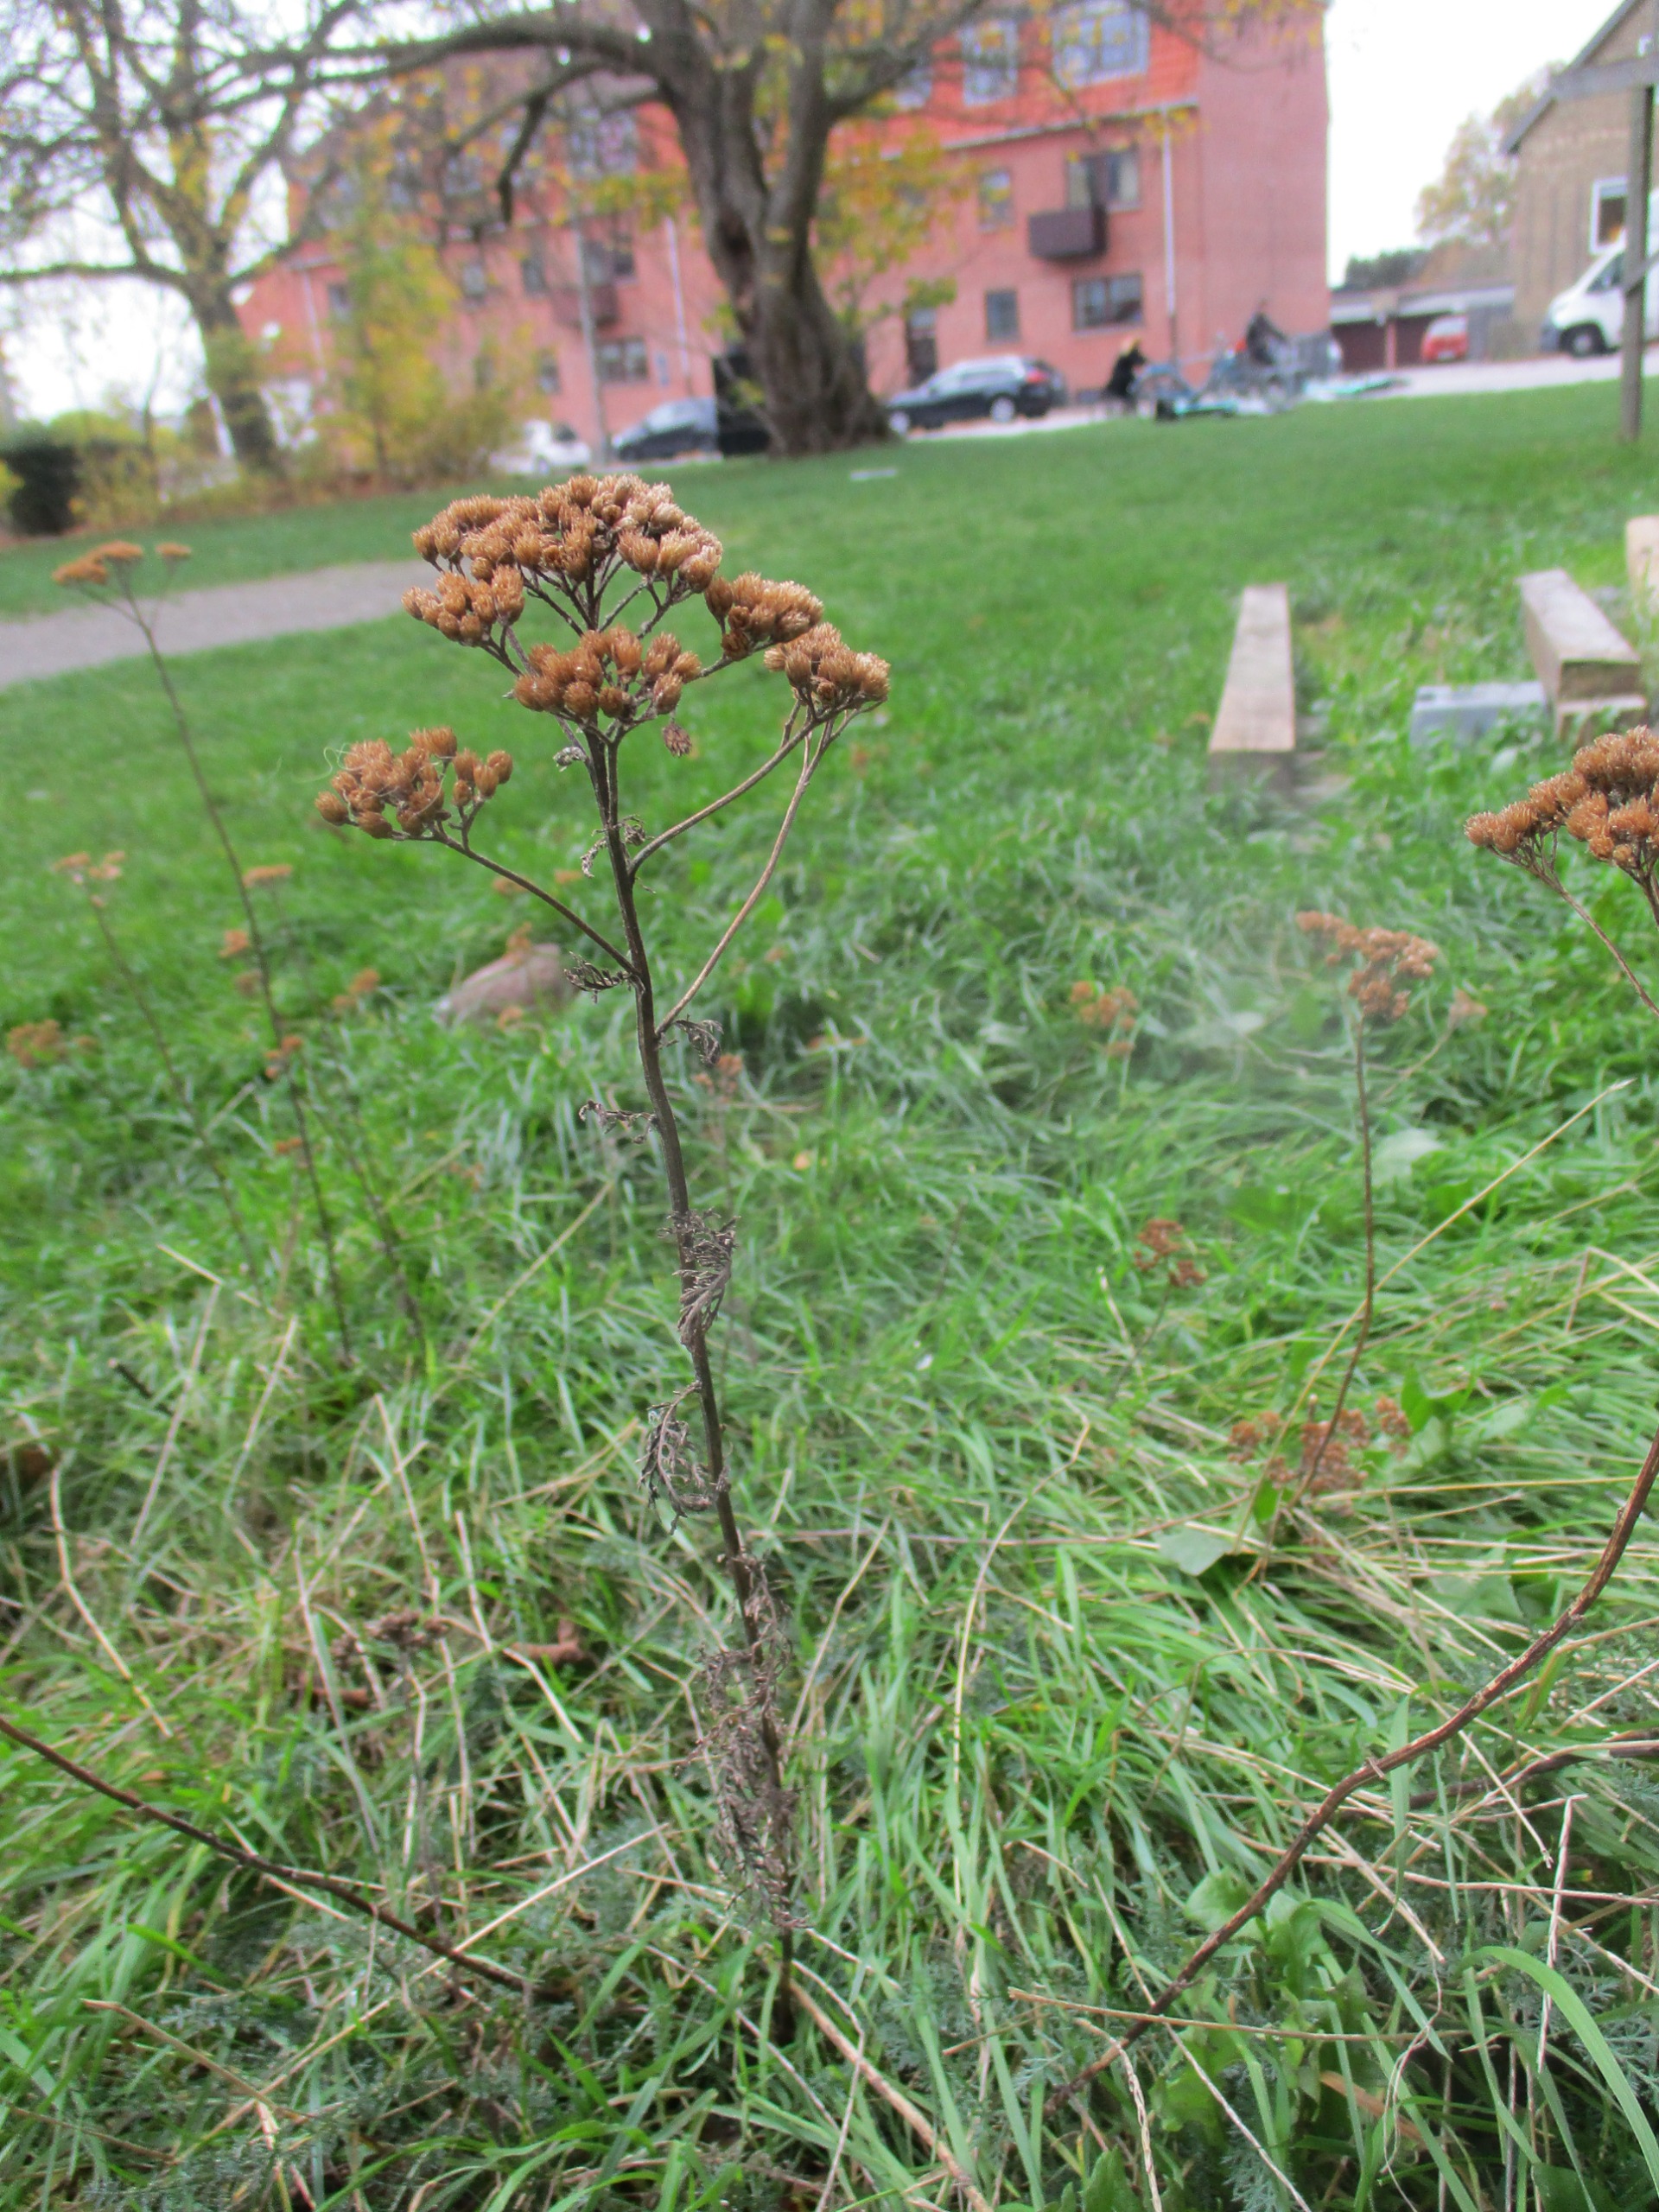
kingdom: Plantae
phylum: Tracheophyta
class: Magnoliopsida
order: Asterales
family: Asteraceae
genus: Achillea
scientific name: Achillea millefolium
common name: Almindelig røllike
